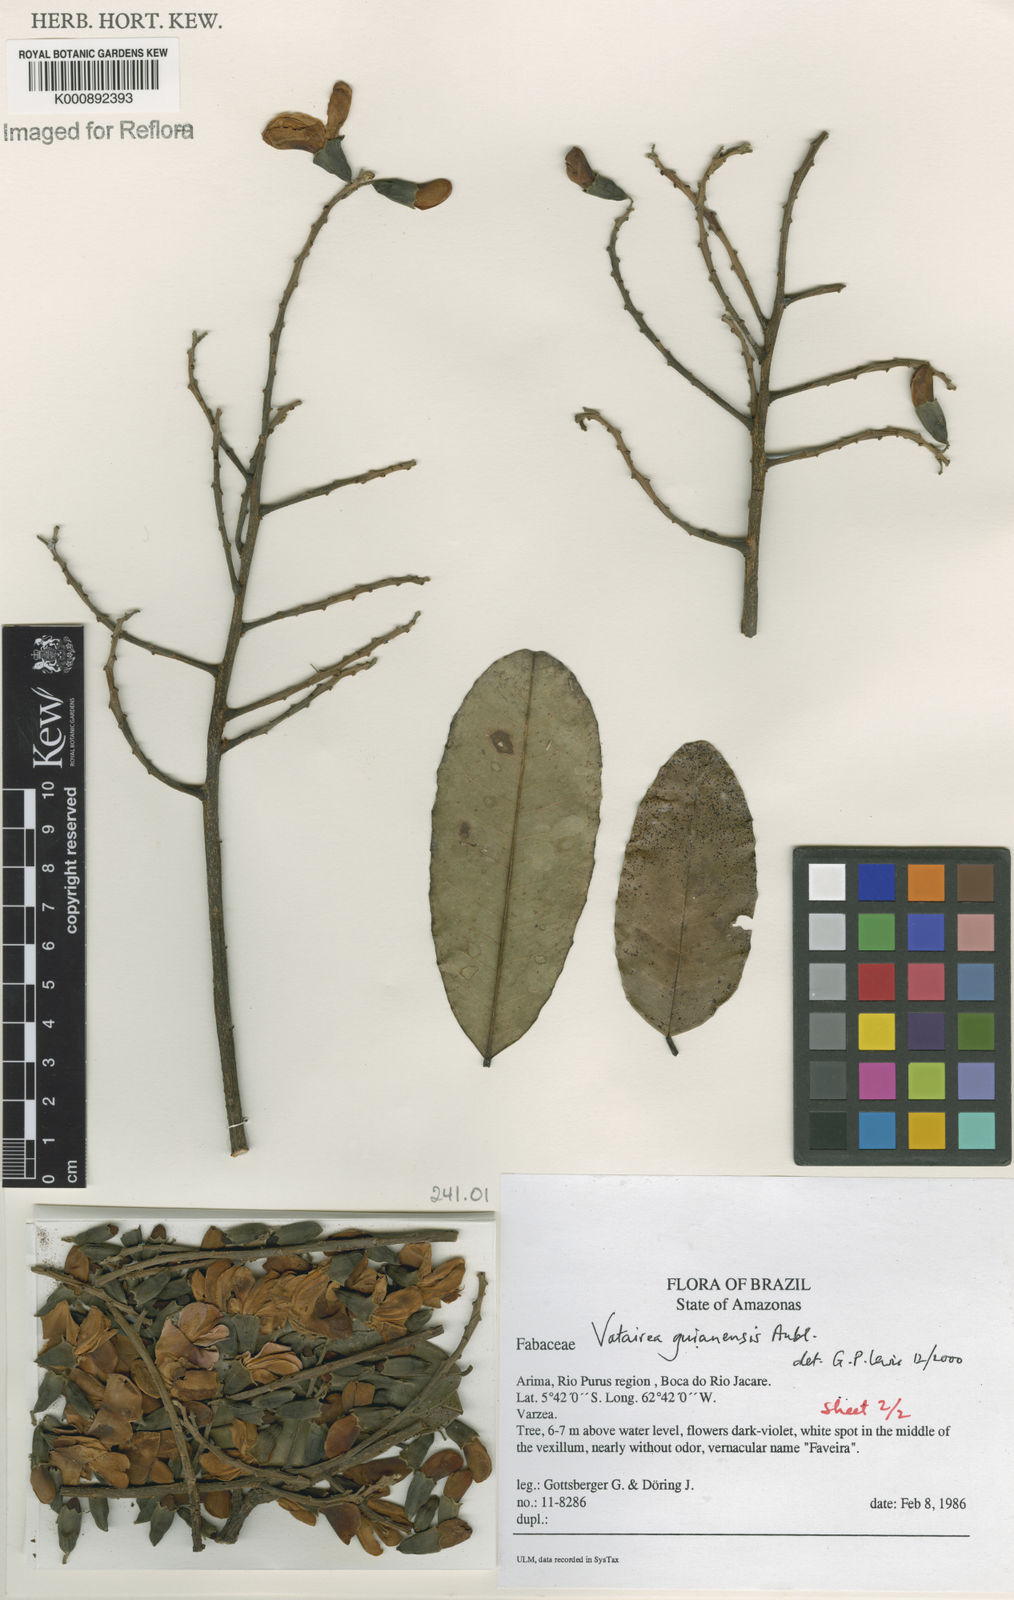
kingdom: Plantae
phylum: Tracheophyta
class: Magnoliopsida
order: Fabales
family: Fabaceae
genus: Vatairea
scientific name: Vatairea guianensis
